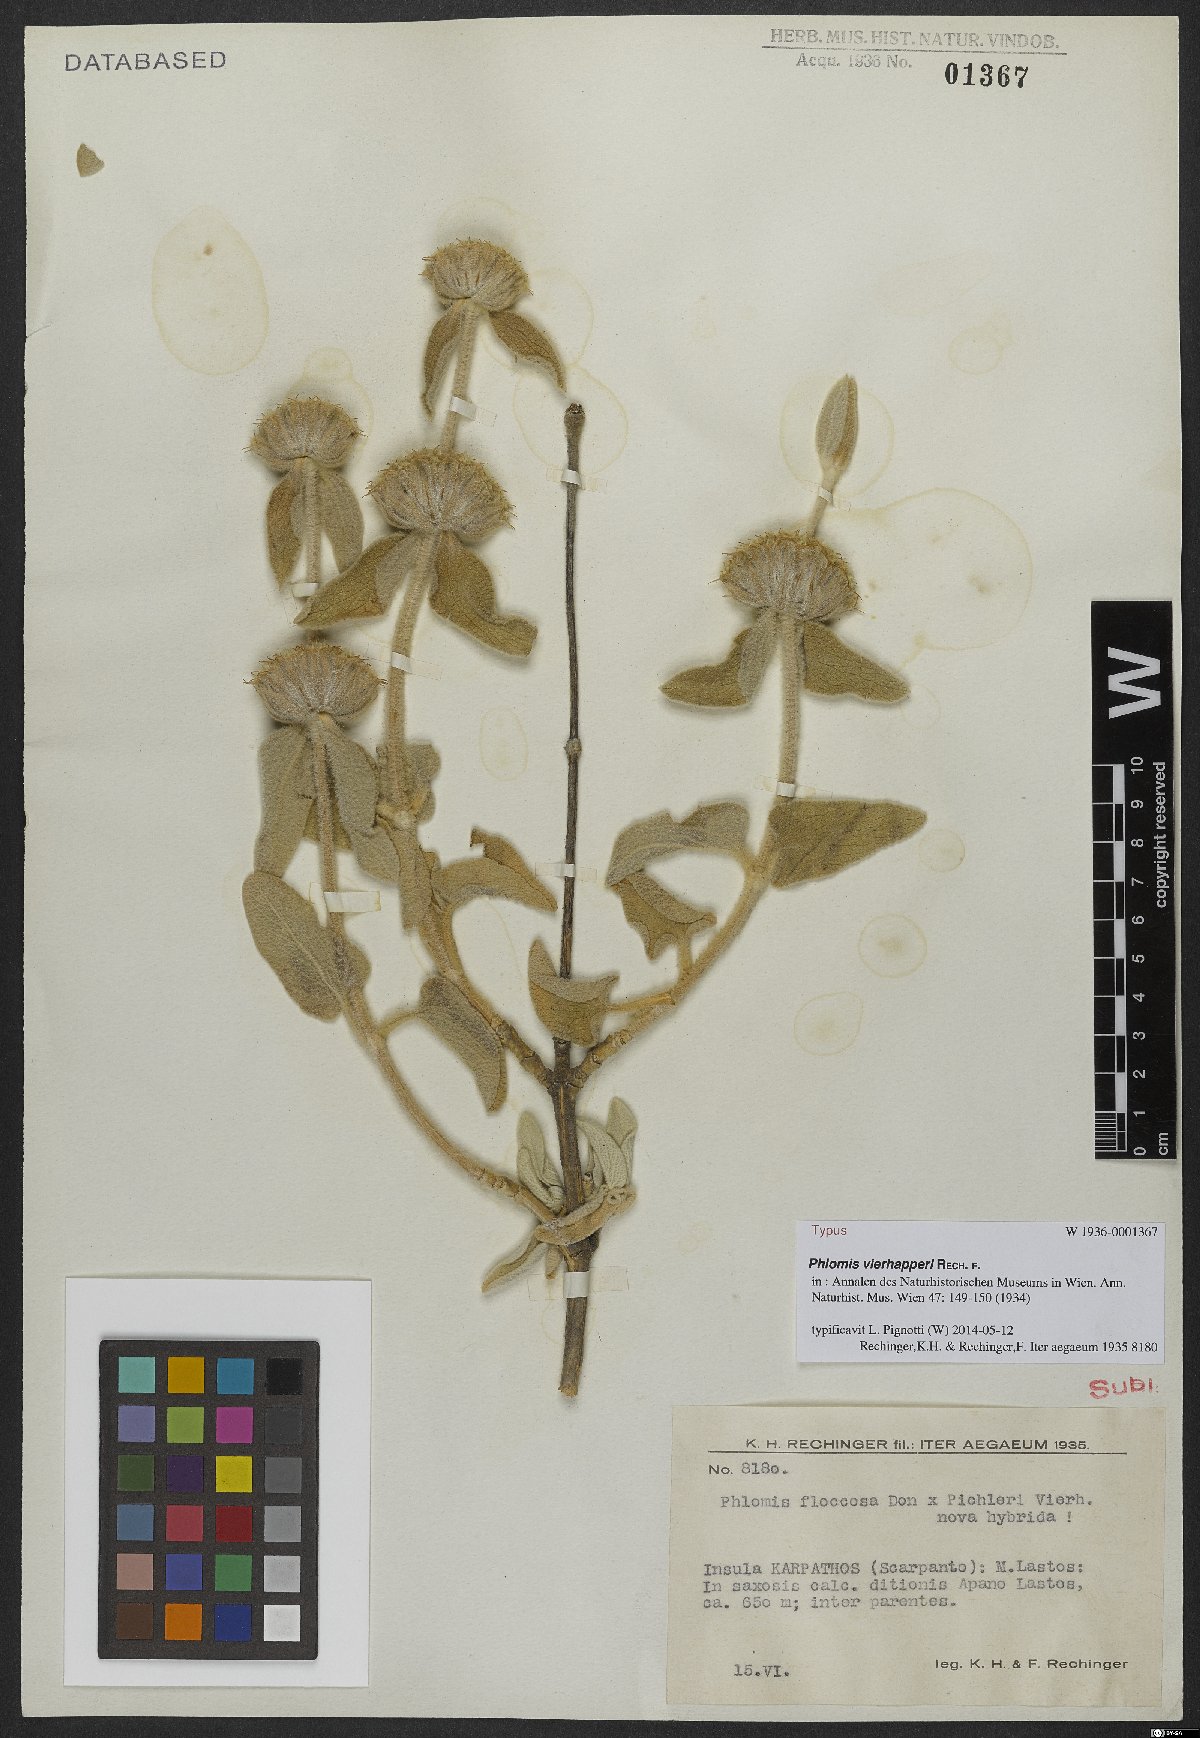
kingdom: Plantae
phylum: Tracheophyta
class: Magnoliopsida
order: Lamiales
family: Lamiaceae
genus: Phlomis
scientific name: Phlomis vierhapperi
